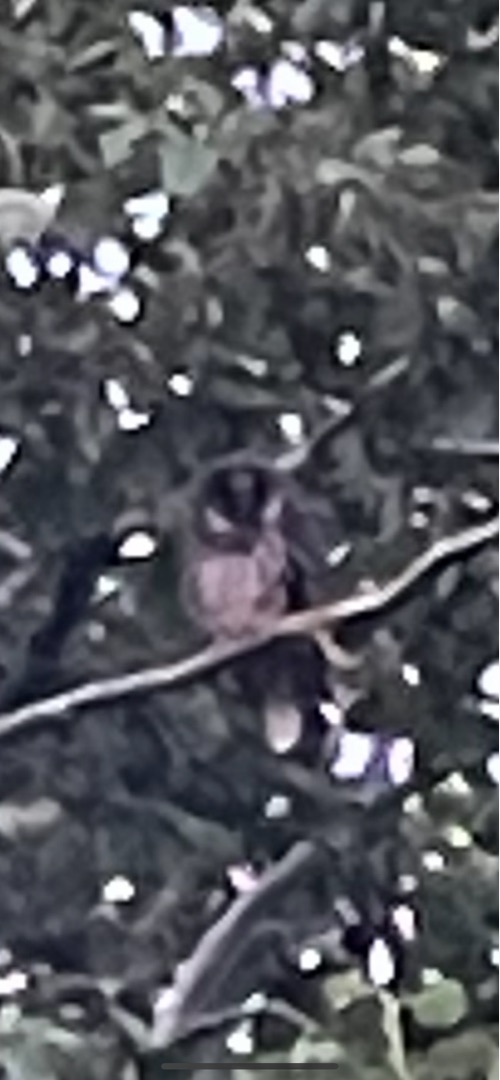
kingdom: Animalia
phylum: Chordata
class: Aves
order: Strigiformes
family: Strigidae
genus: Strix
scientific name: Strix aluco
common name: Natugle
